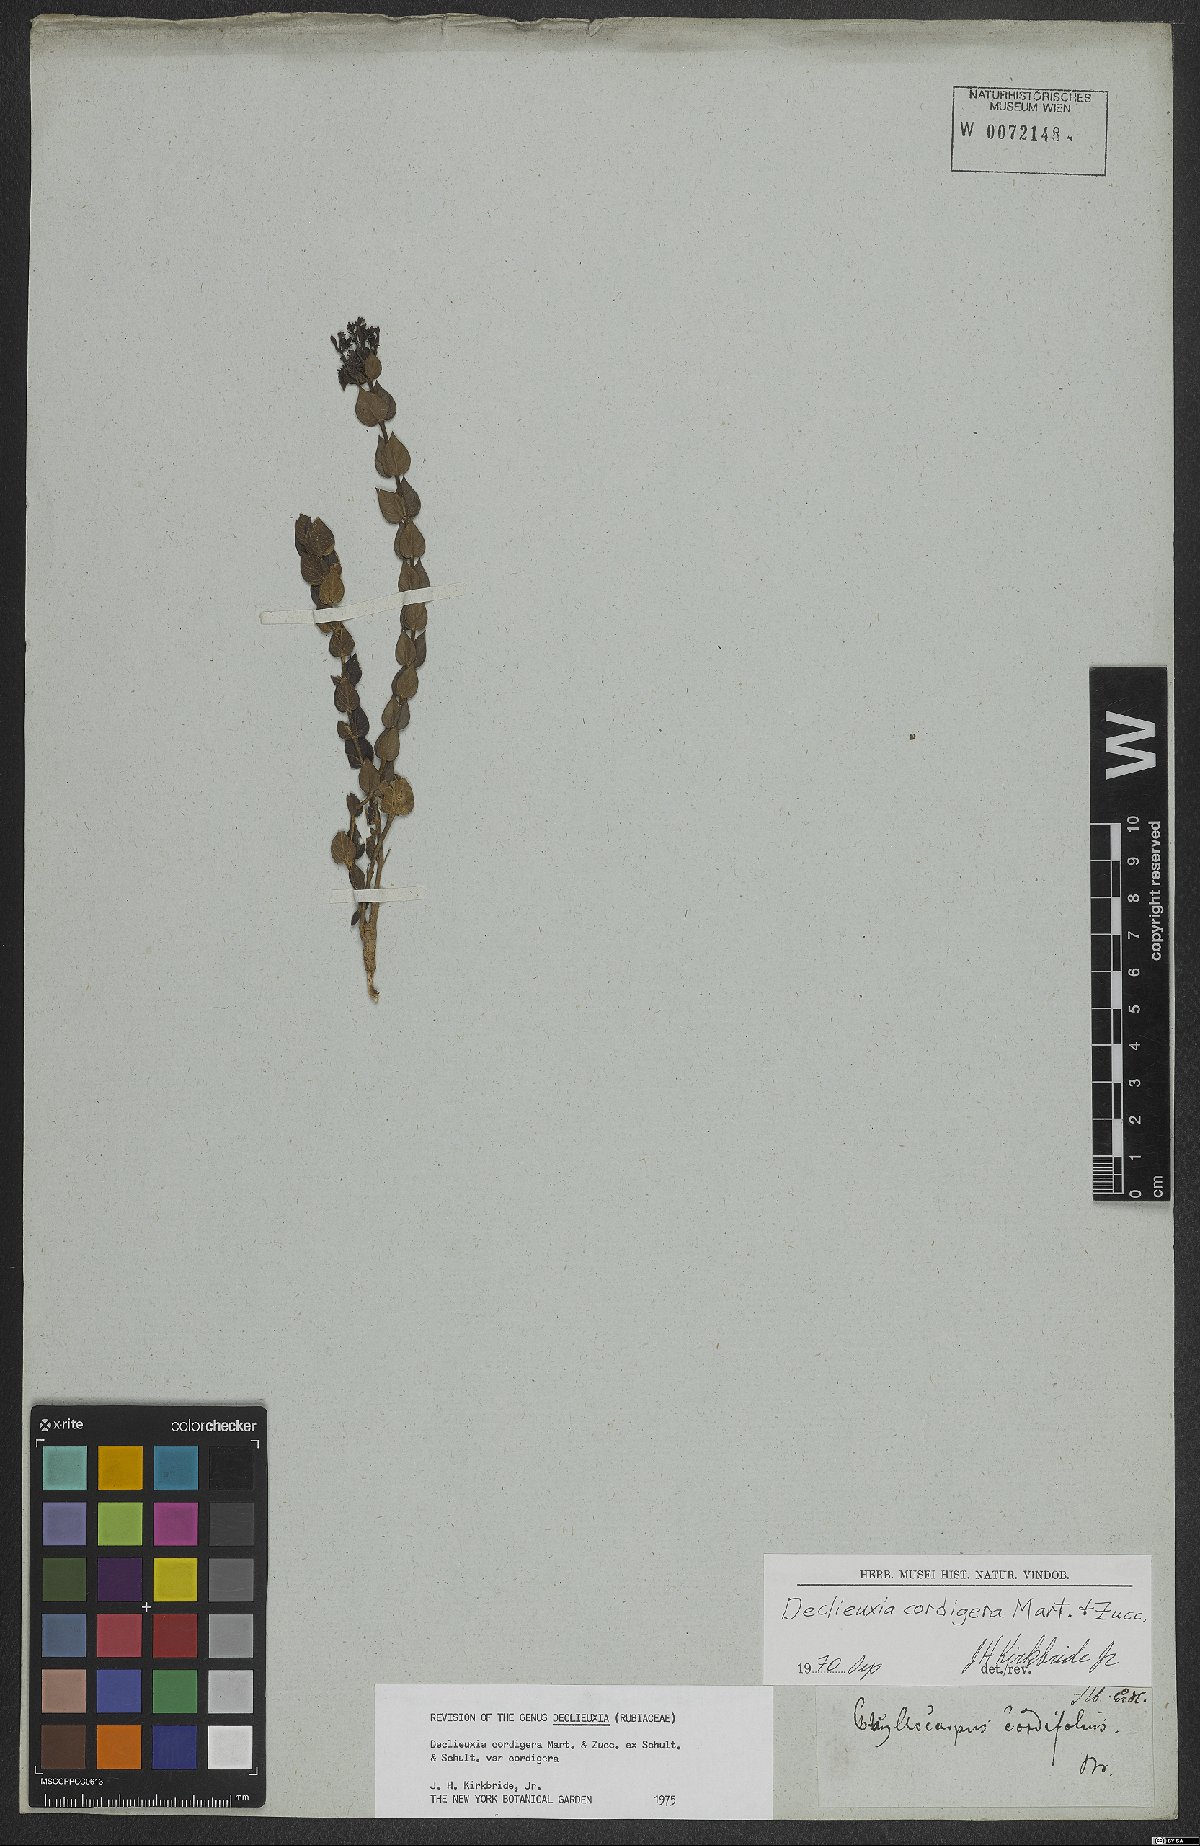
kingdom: Plantae
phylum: Tracheophyta
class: Magnoliopsida
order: Gentianales
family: Rubiaceae
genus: Declieuxia
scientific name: Declieuxia cordigera
